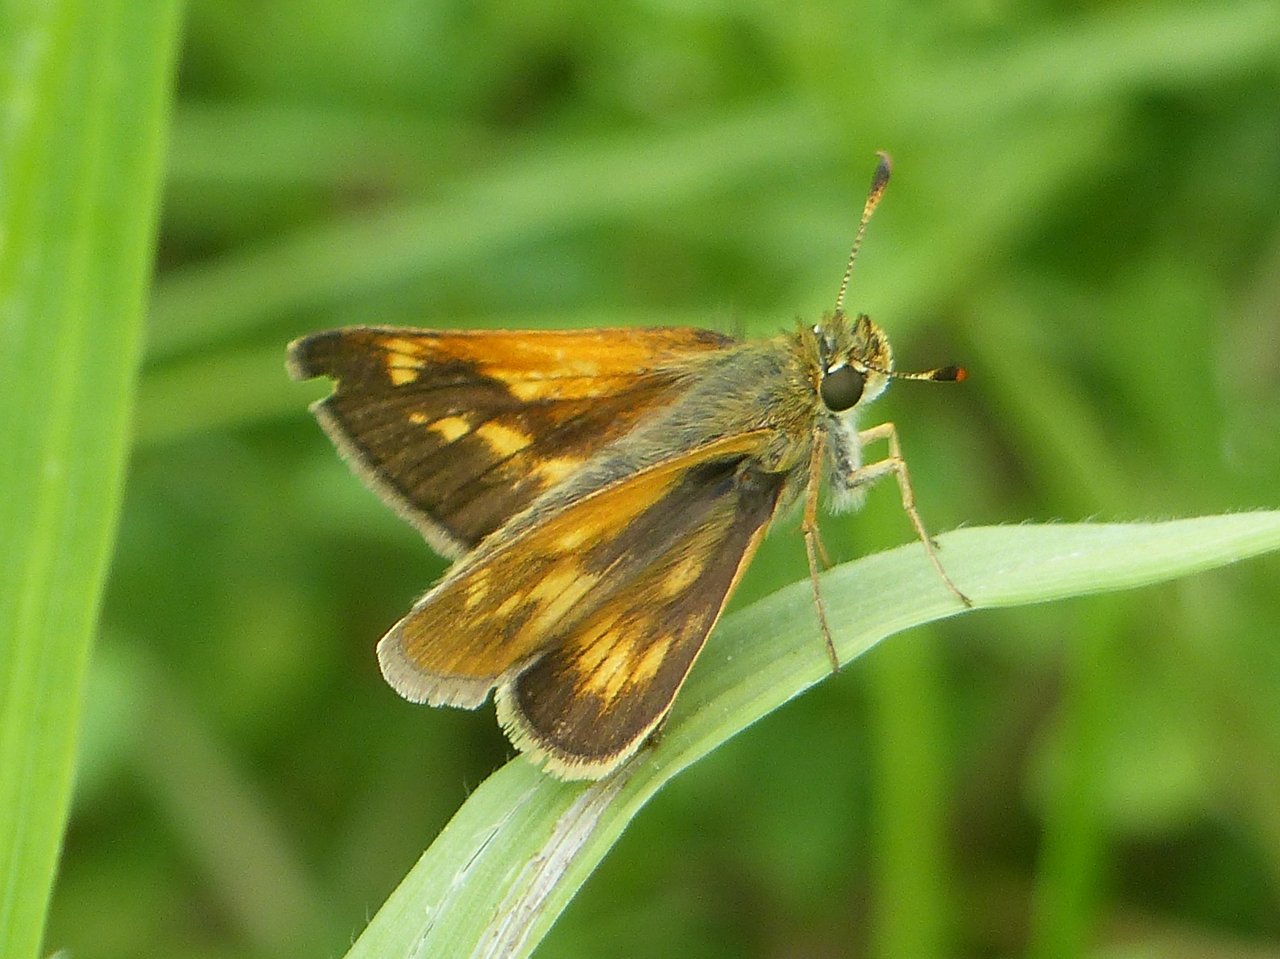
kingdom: Animalia
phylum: Arthropoda
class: Insecta
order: Lepidoptera
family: Hesperiidae
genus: Polites
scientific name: Polites
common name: Long Dash Skipper
